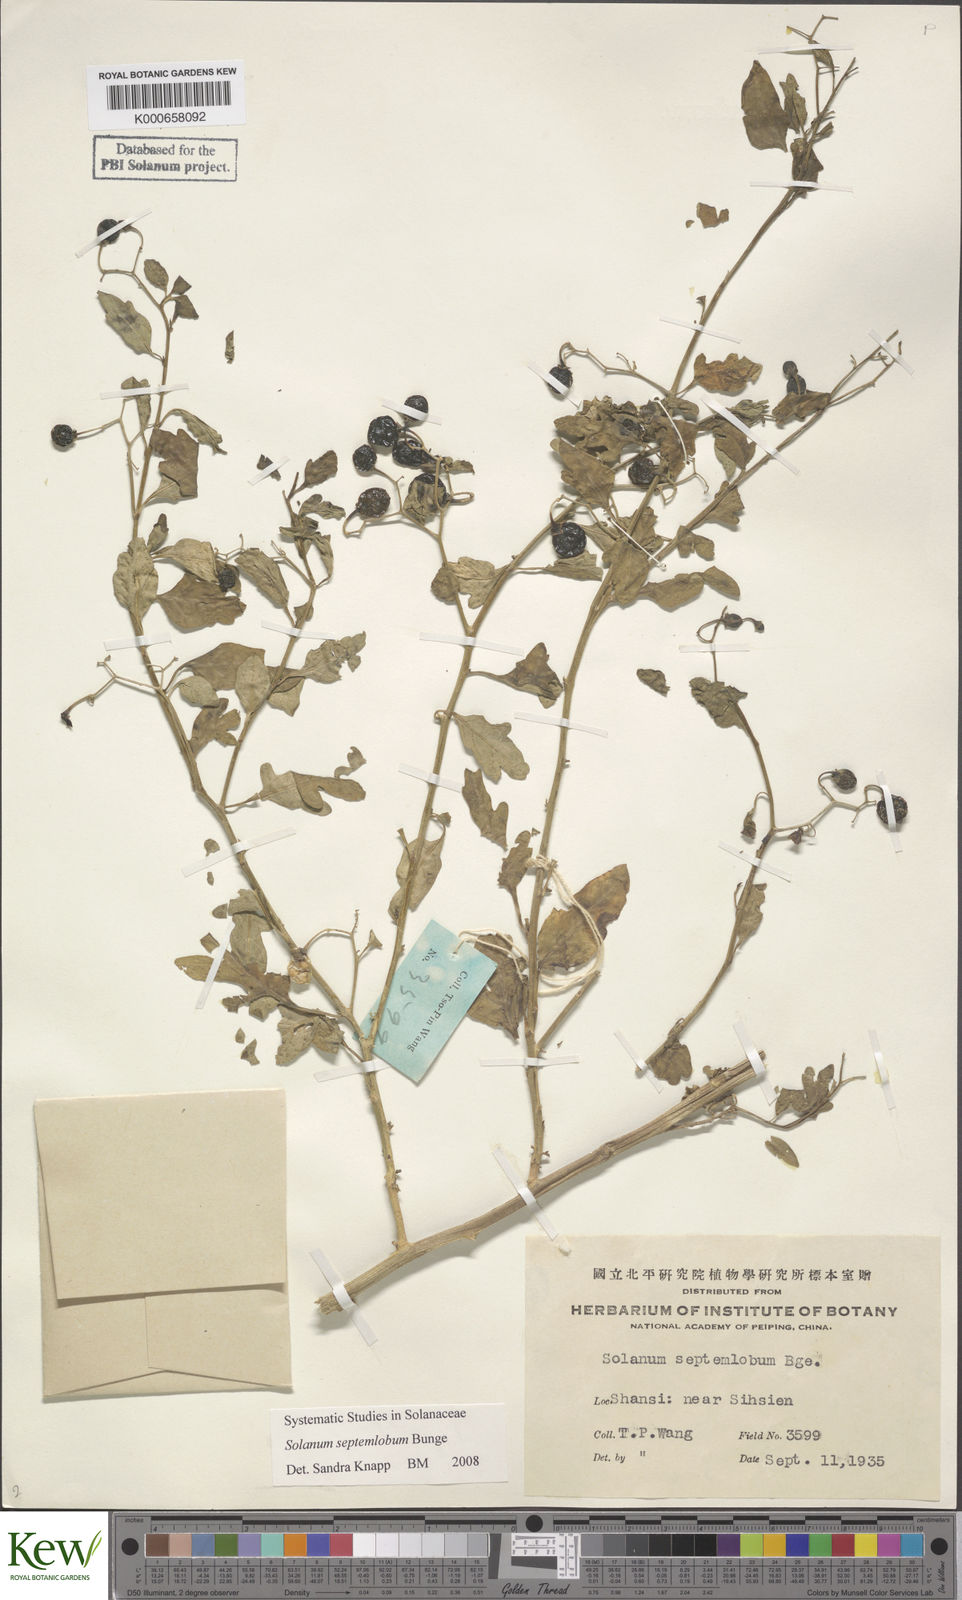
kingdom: Plantae
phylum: Tracheophyta
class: Magnoliopsida
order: Solanales
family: Solanaceae
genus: Solanum
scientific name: Solanum septemlobum
